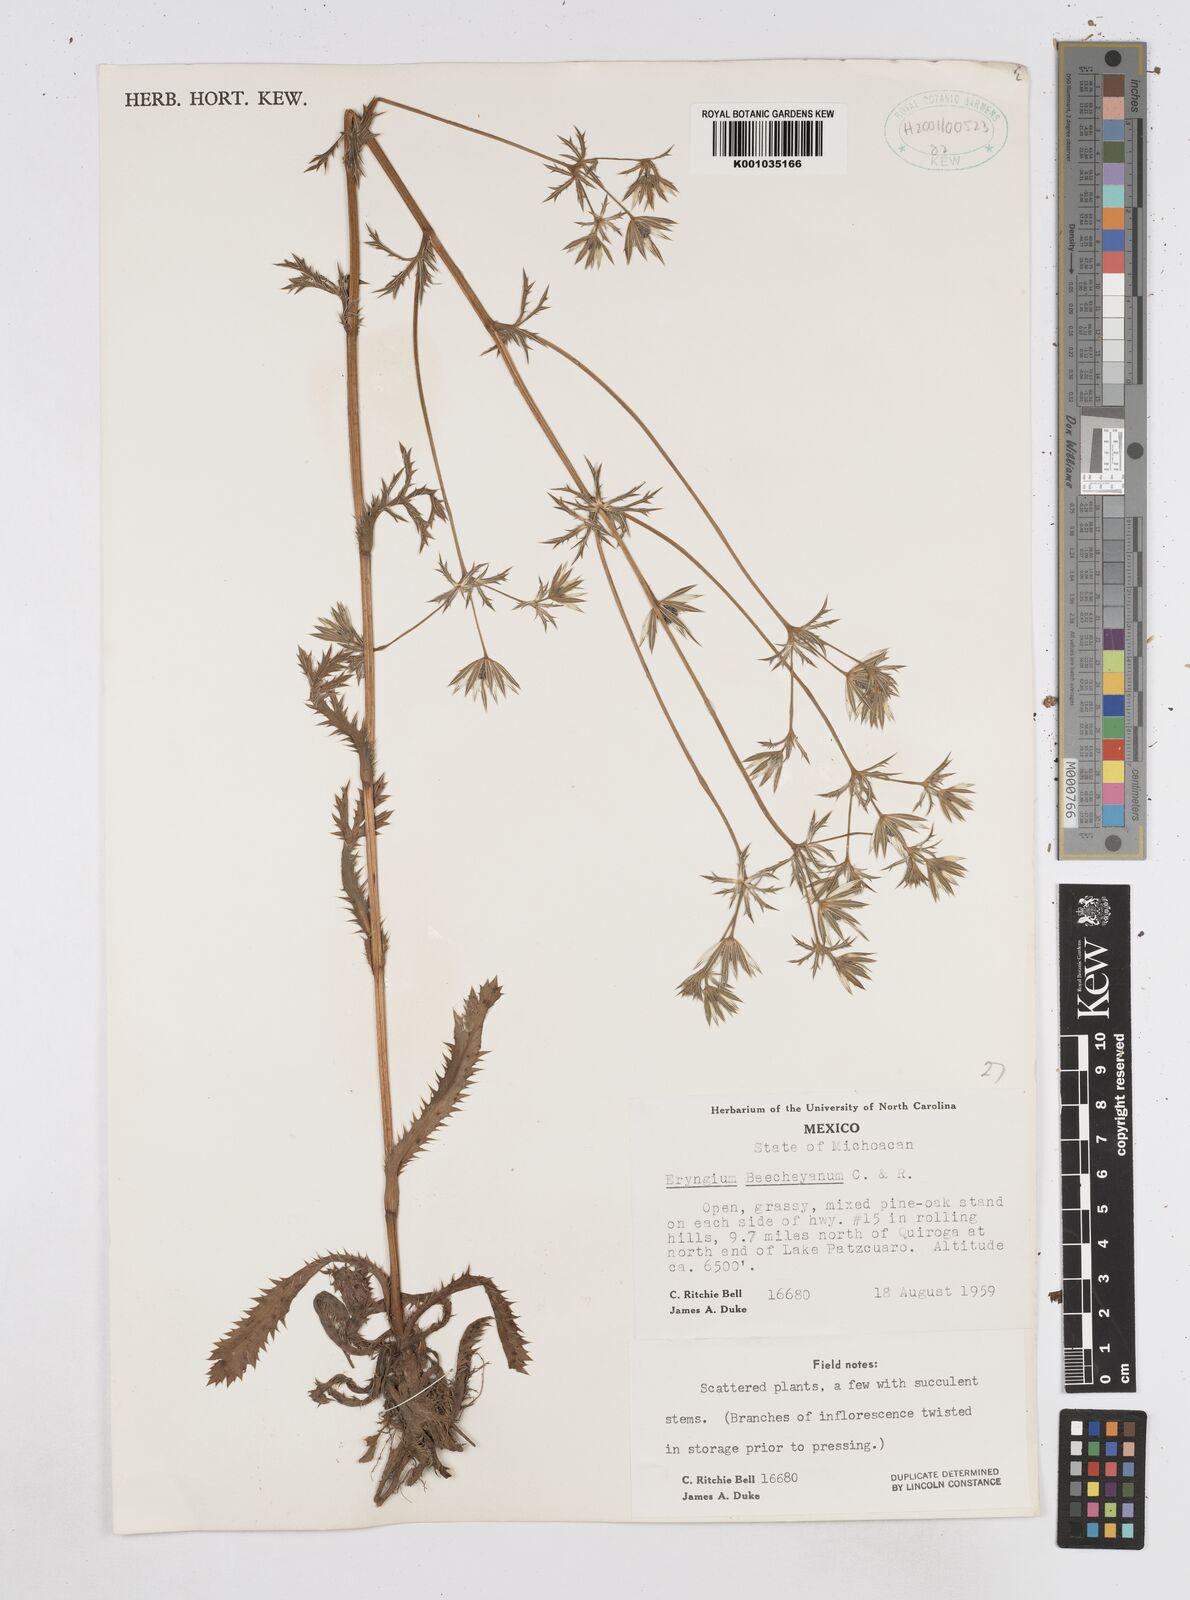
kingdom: Plantae
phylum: Tracheophyta
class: Magnoliopsida
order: Apiales
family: Apiaceae
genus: Eryngium
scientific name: Eryngium beecheyanum
